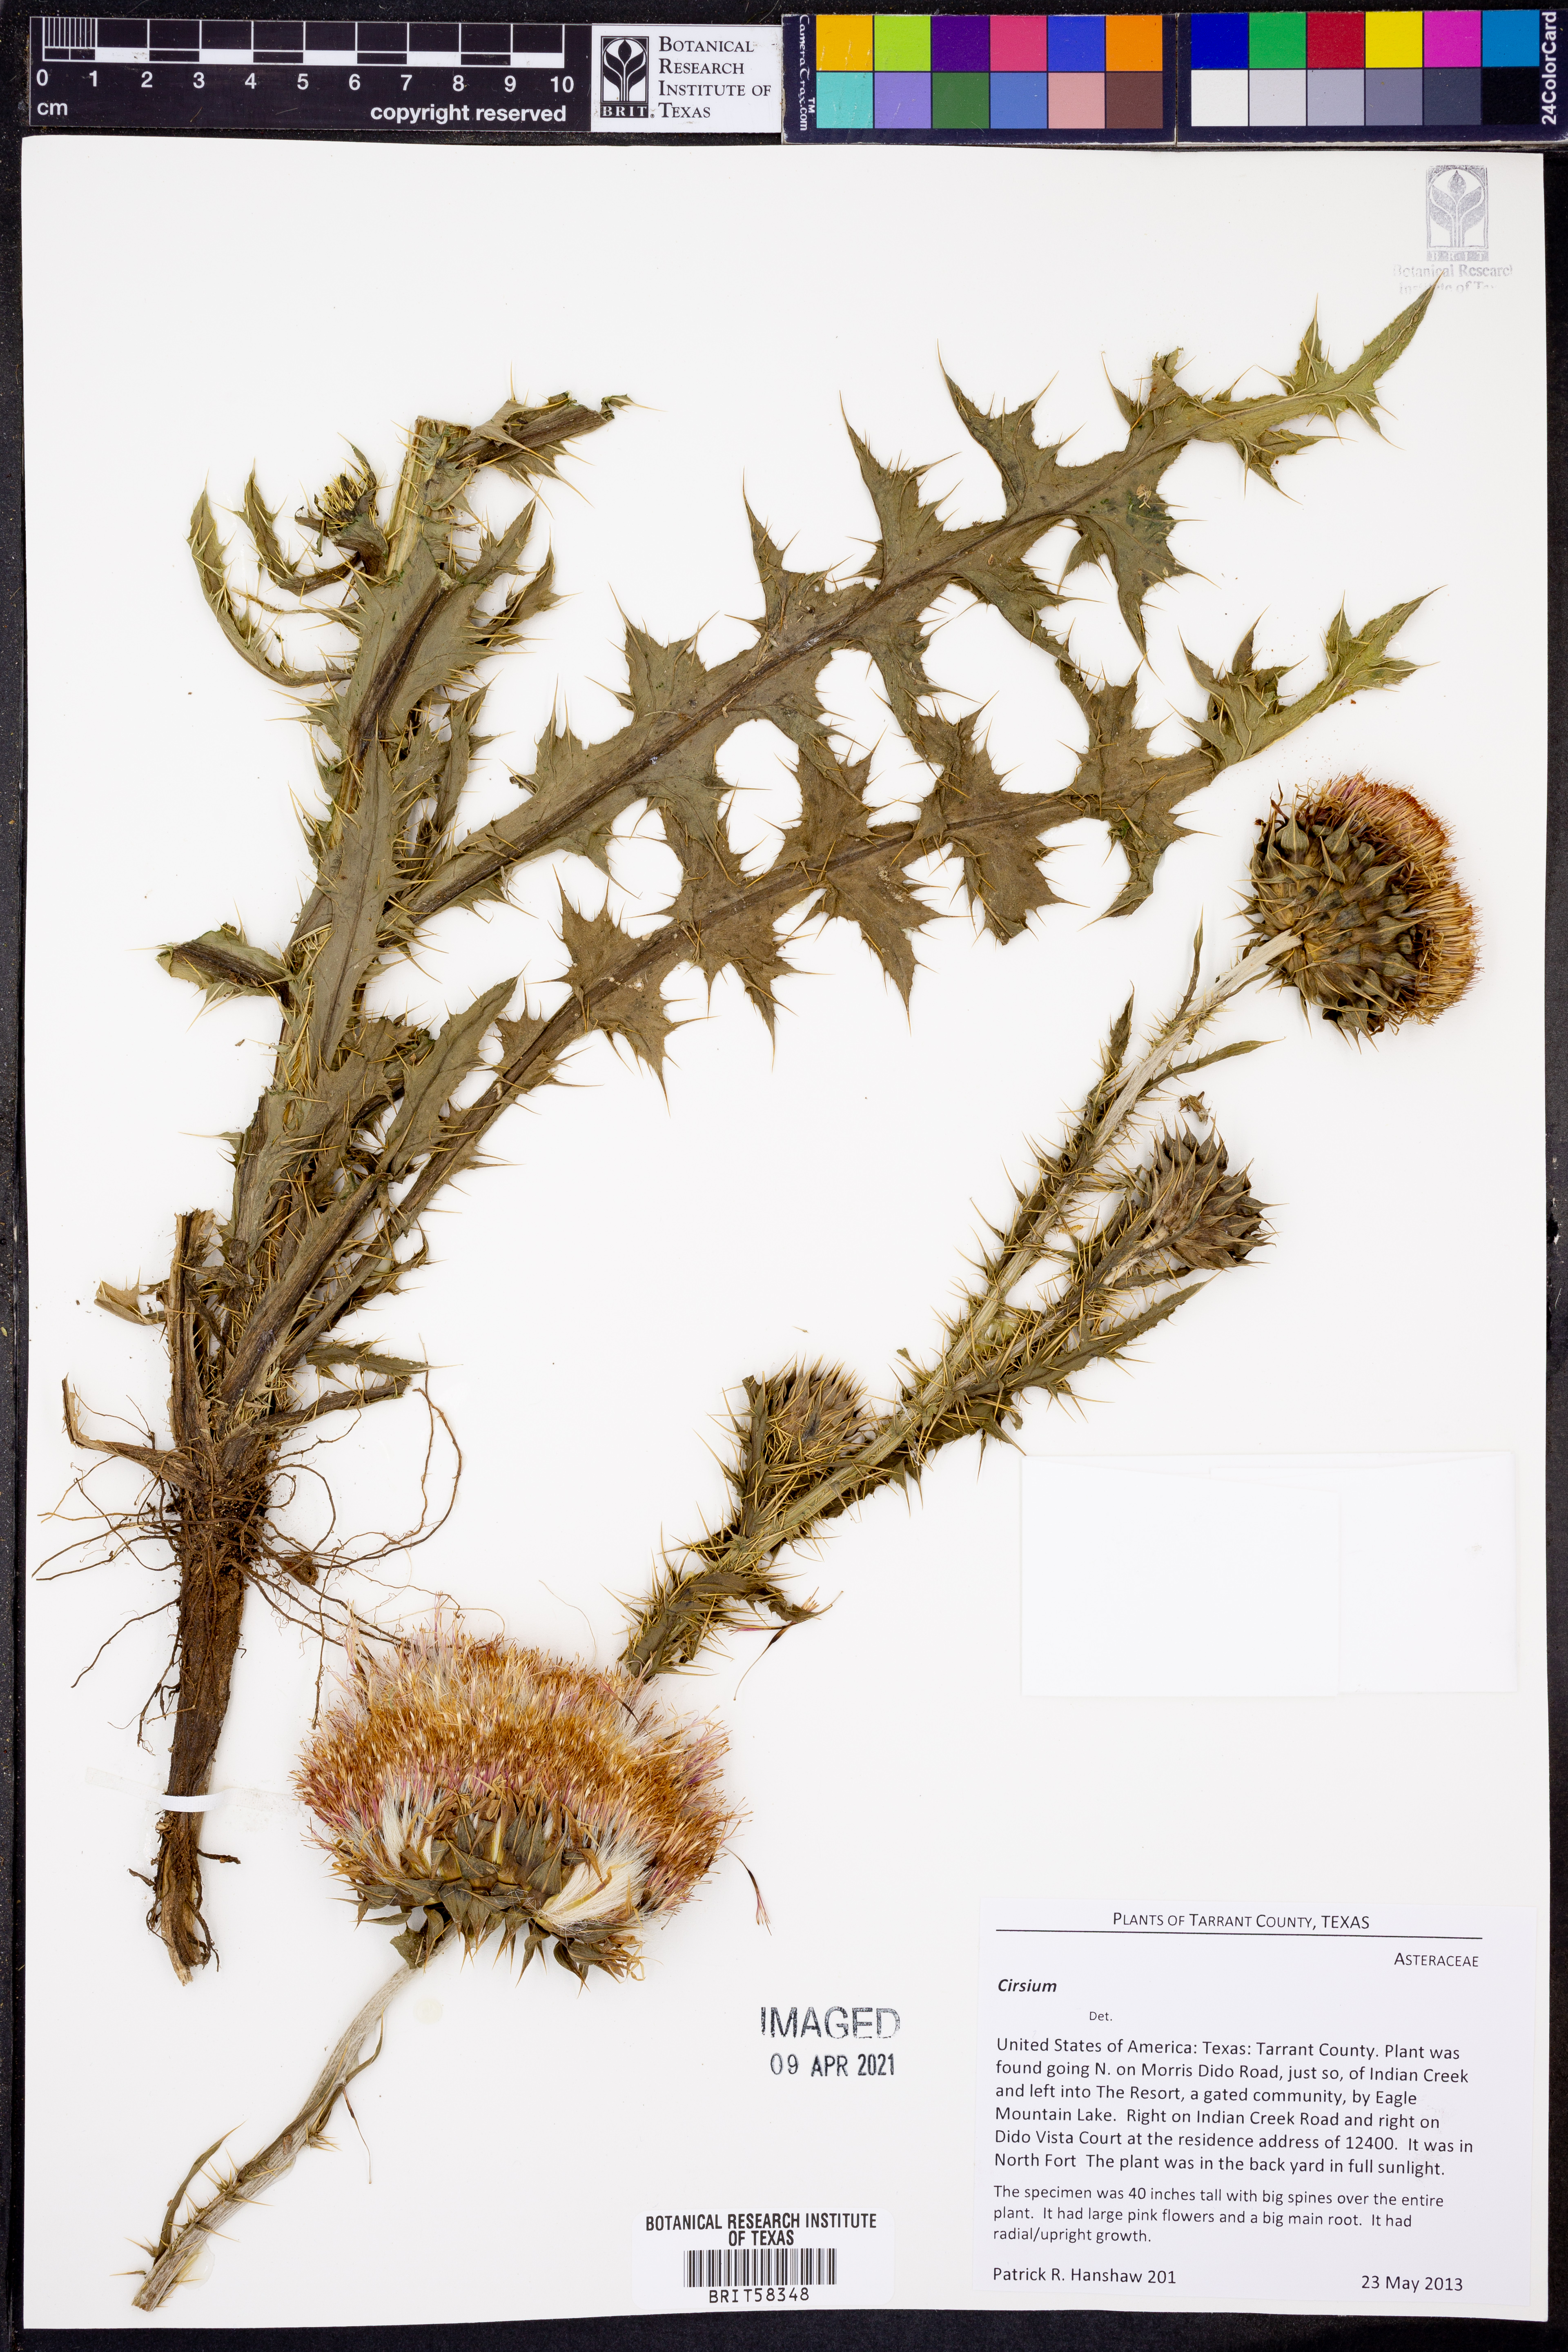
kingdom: Plantae
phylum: Tracheophyta
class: Magnoliopsida
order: Asterales
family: Asteraceae
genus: Cirsium
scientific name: Cirsium
